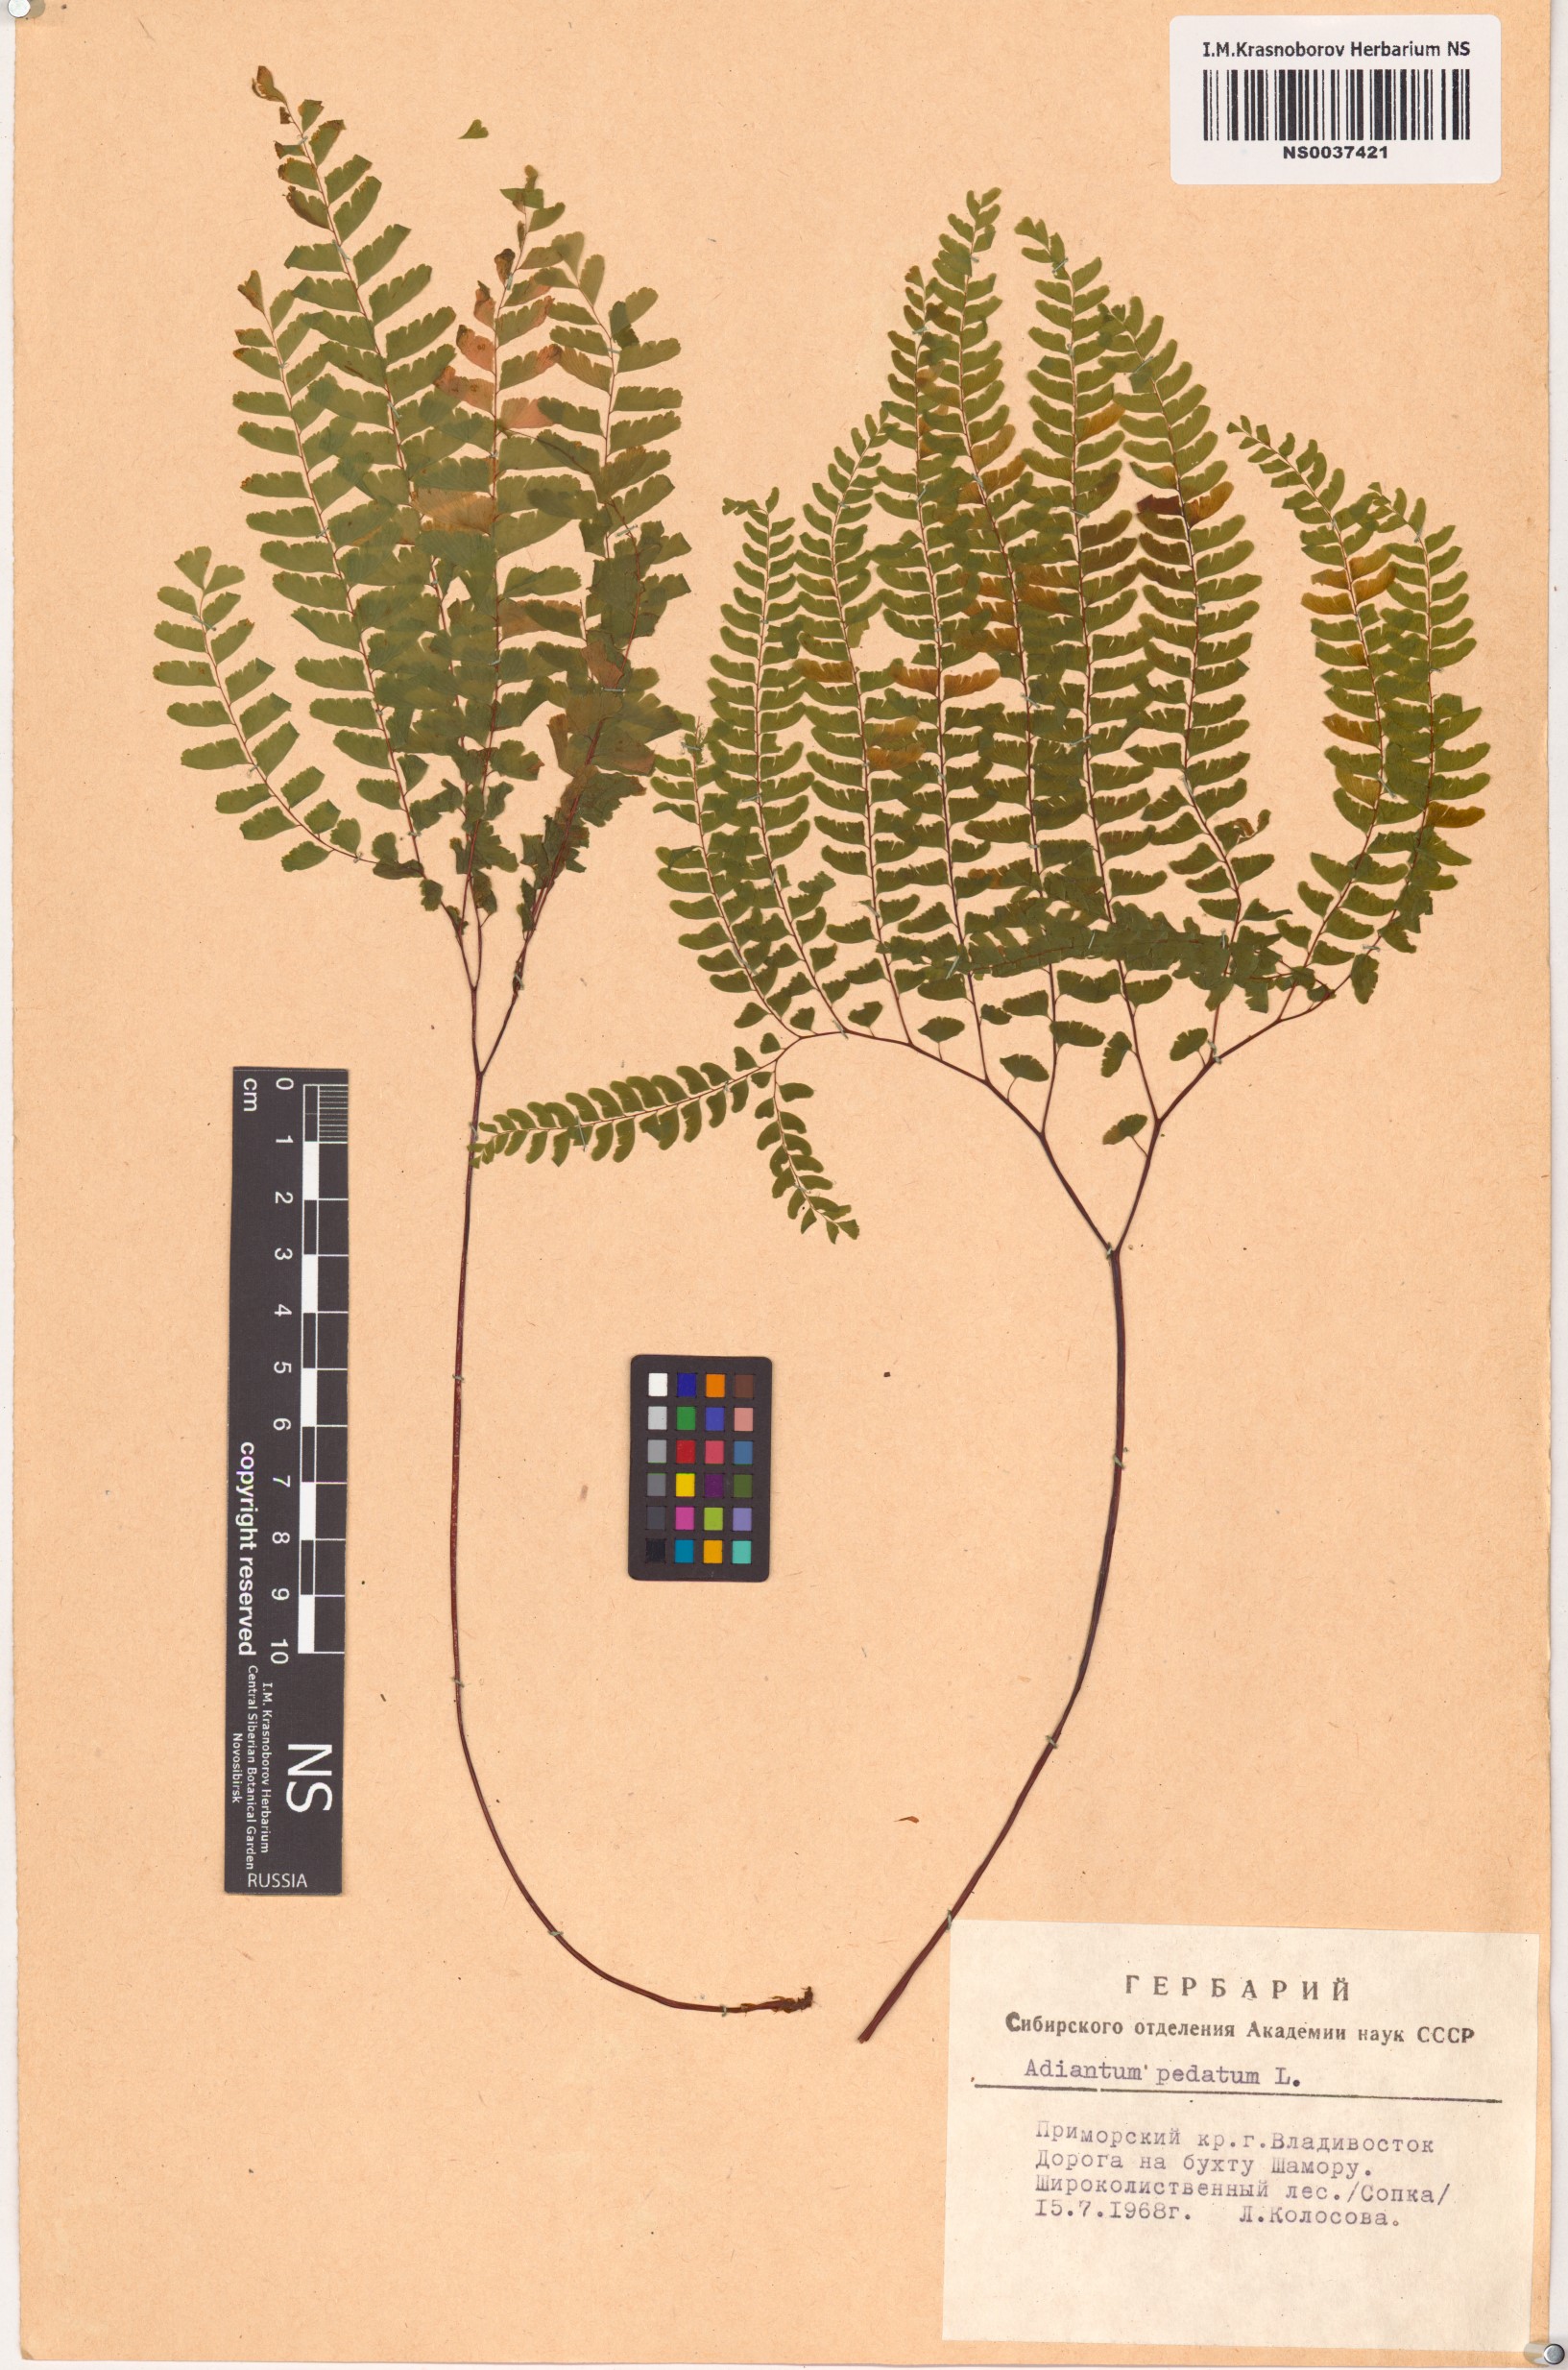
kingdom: Plantae
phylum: Tracheophyta
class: Polypodiopsida
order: Polypodiales
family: Pteridaceae
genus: Adiantum
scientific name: Adiantum pedatum
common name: Five-finger fern
